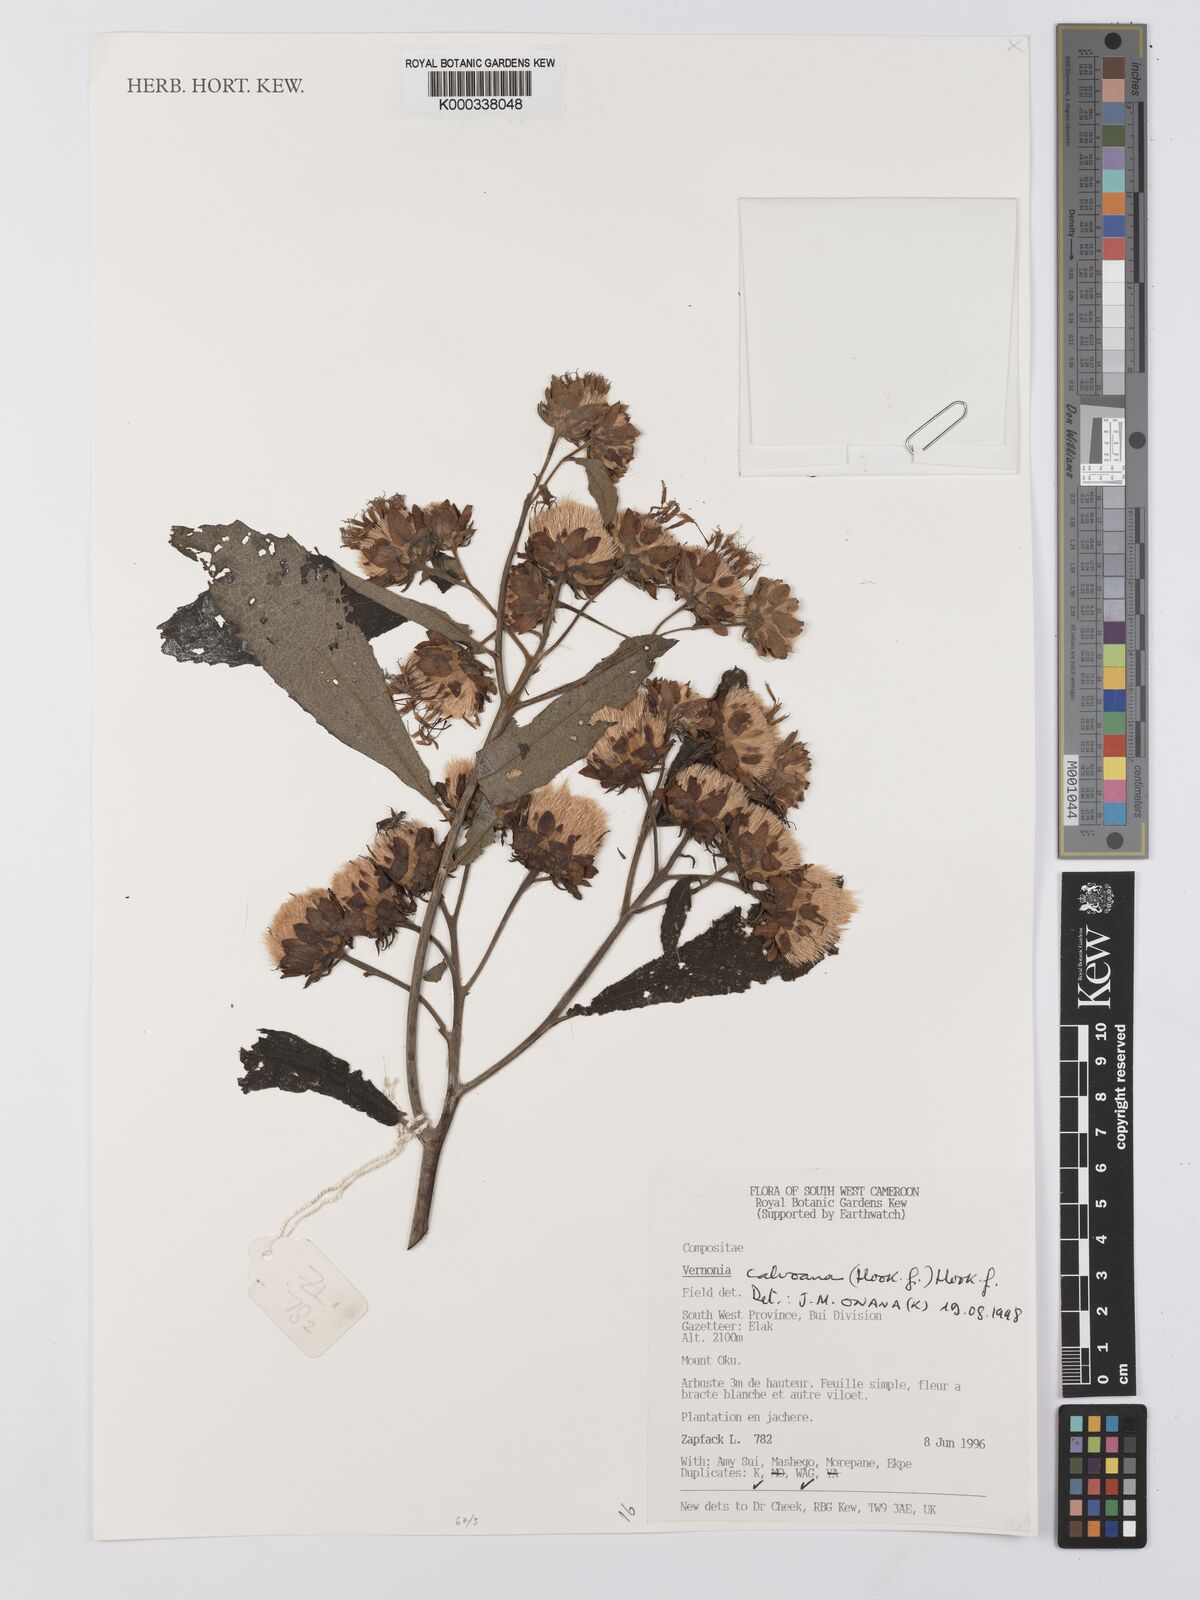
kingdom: Plantae
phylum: Tracheophyta
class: Magnoliopsida
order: Asterales
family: Asteraceae
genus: Baccharoides
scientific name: Baccharoides calvoana
